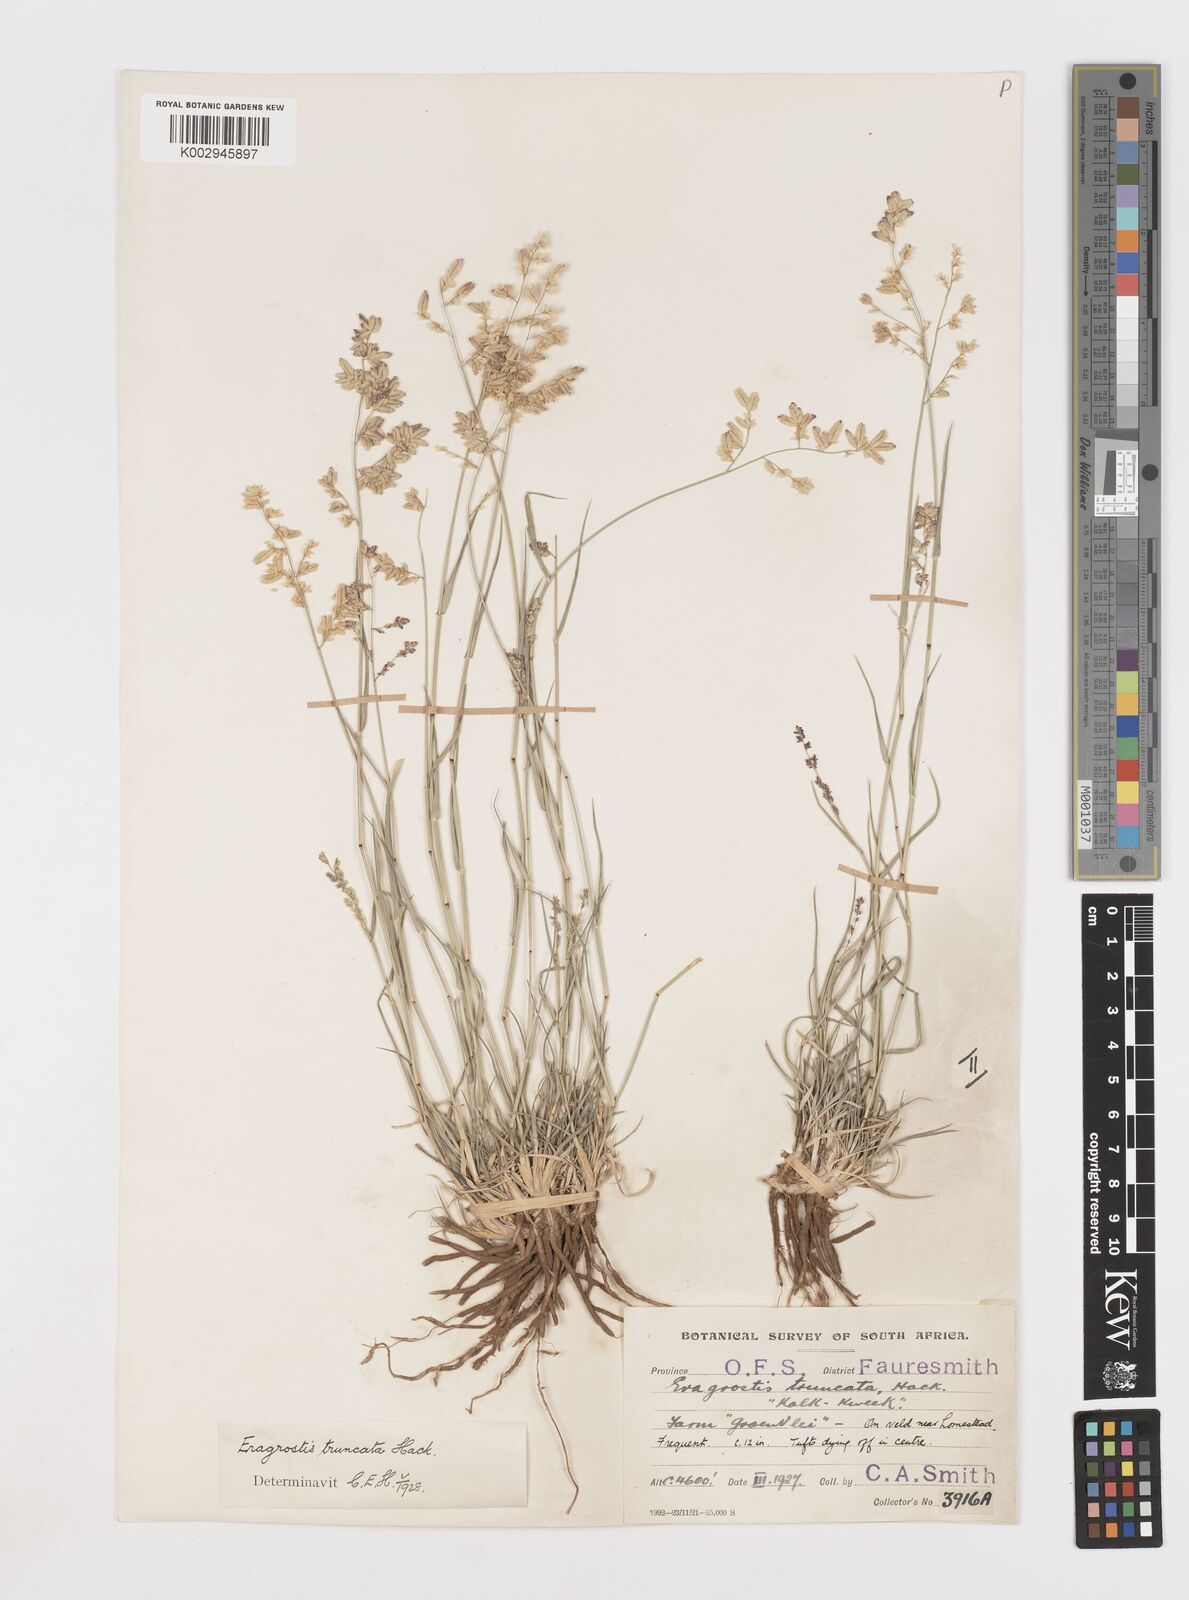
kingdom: Plantae
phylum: Tracheophyta
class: Liliopsida
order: Poales
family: Poaceae
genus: Eragrostis
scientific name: Eragrostis truncata
